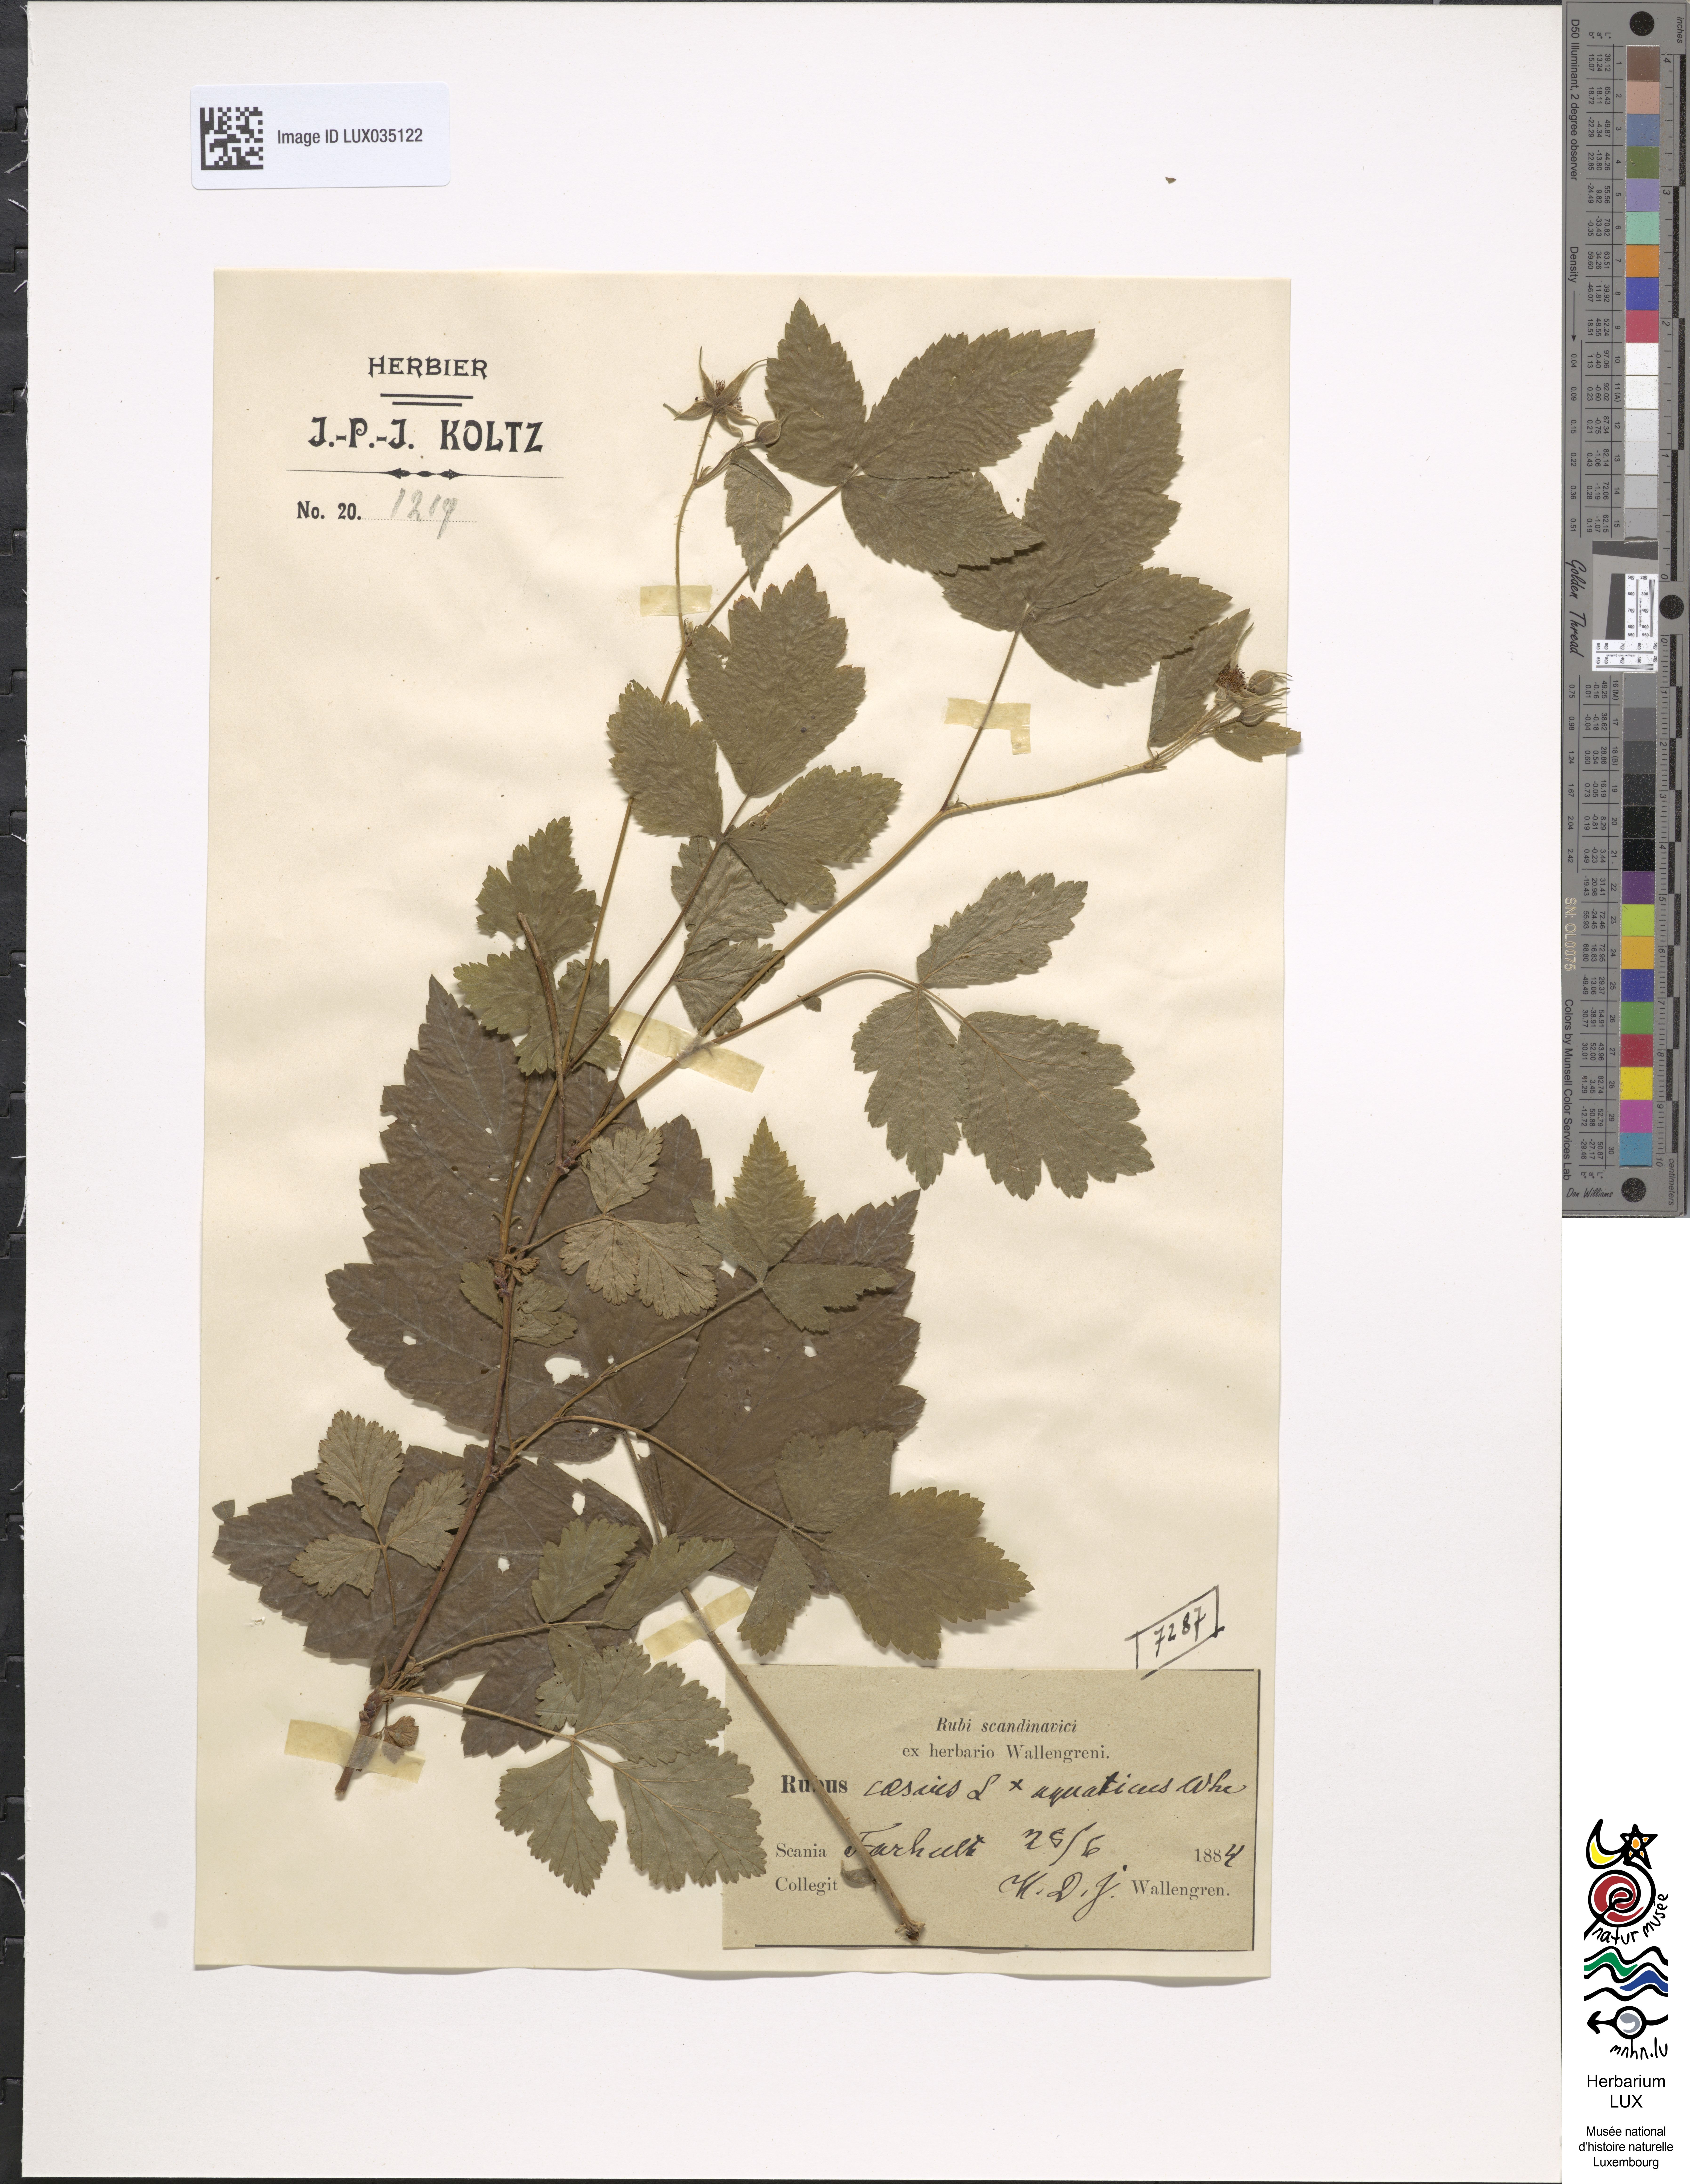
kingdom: Plantae
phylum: Tracheophyta
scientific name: Tracheophyta
